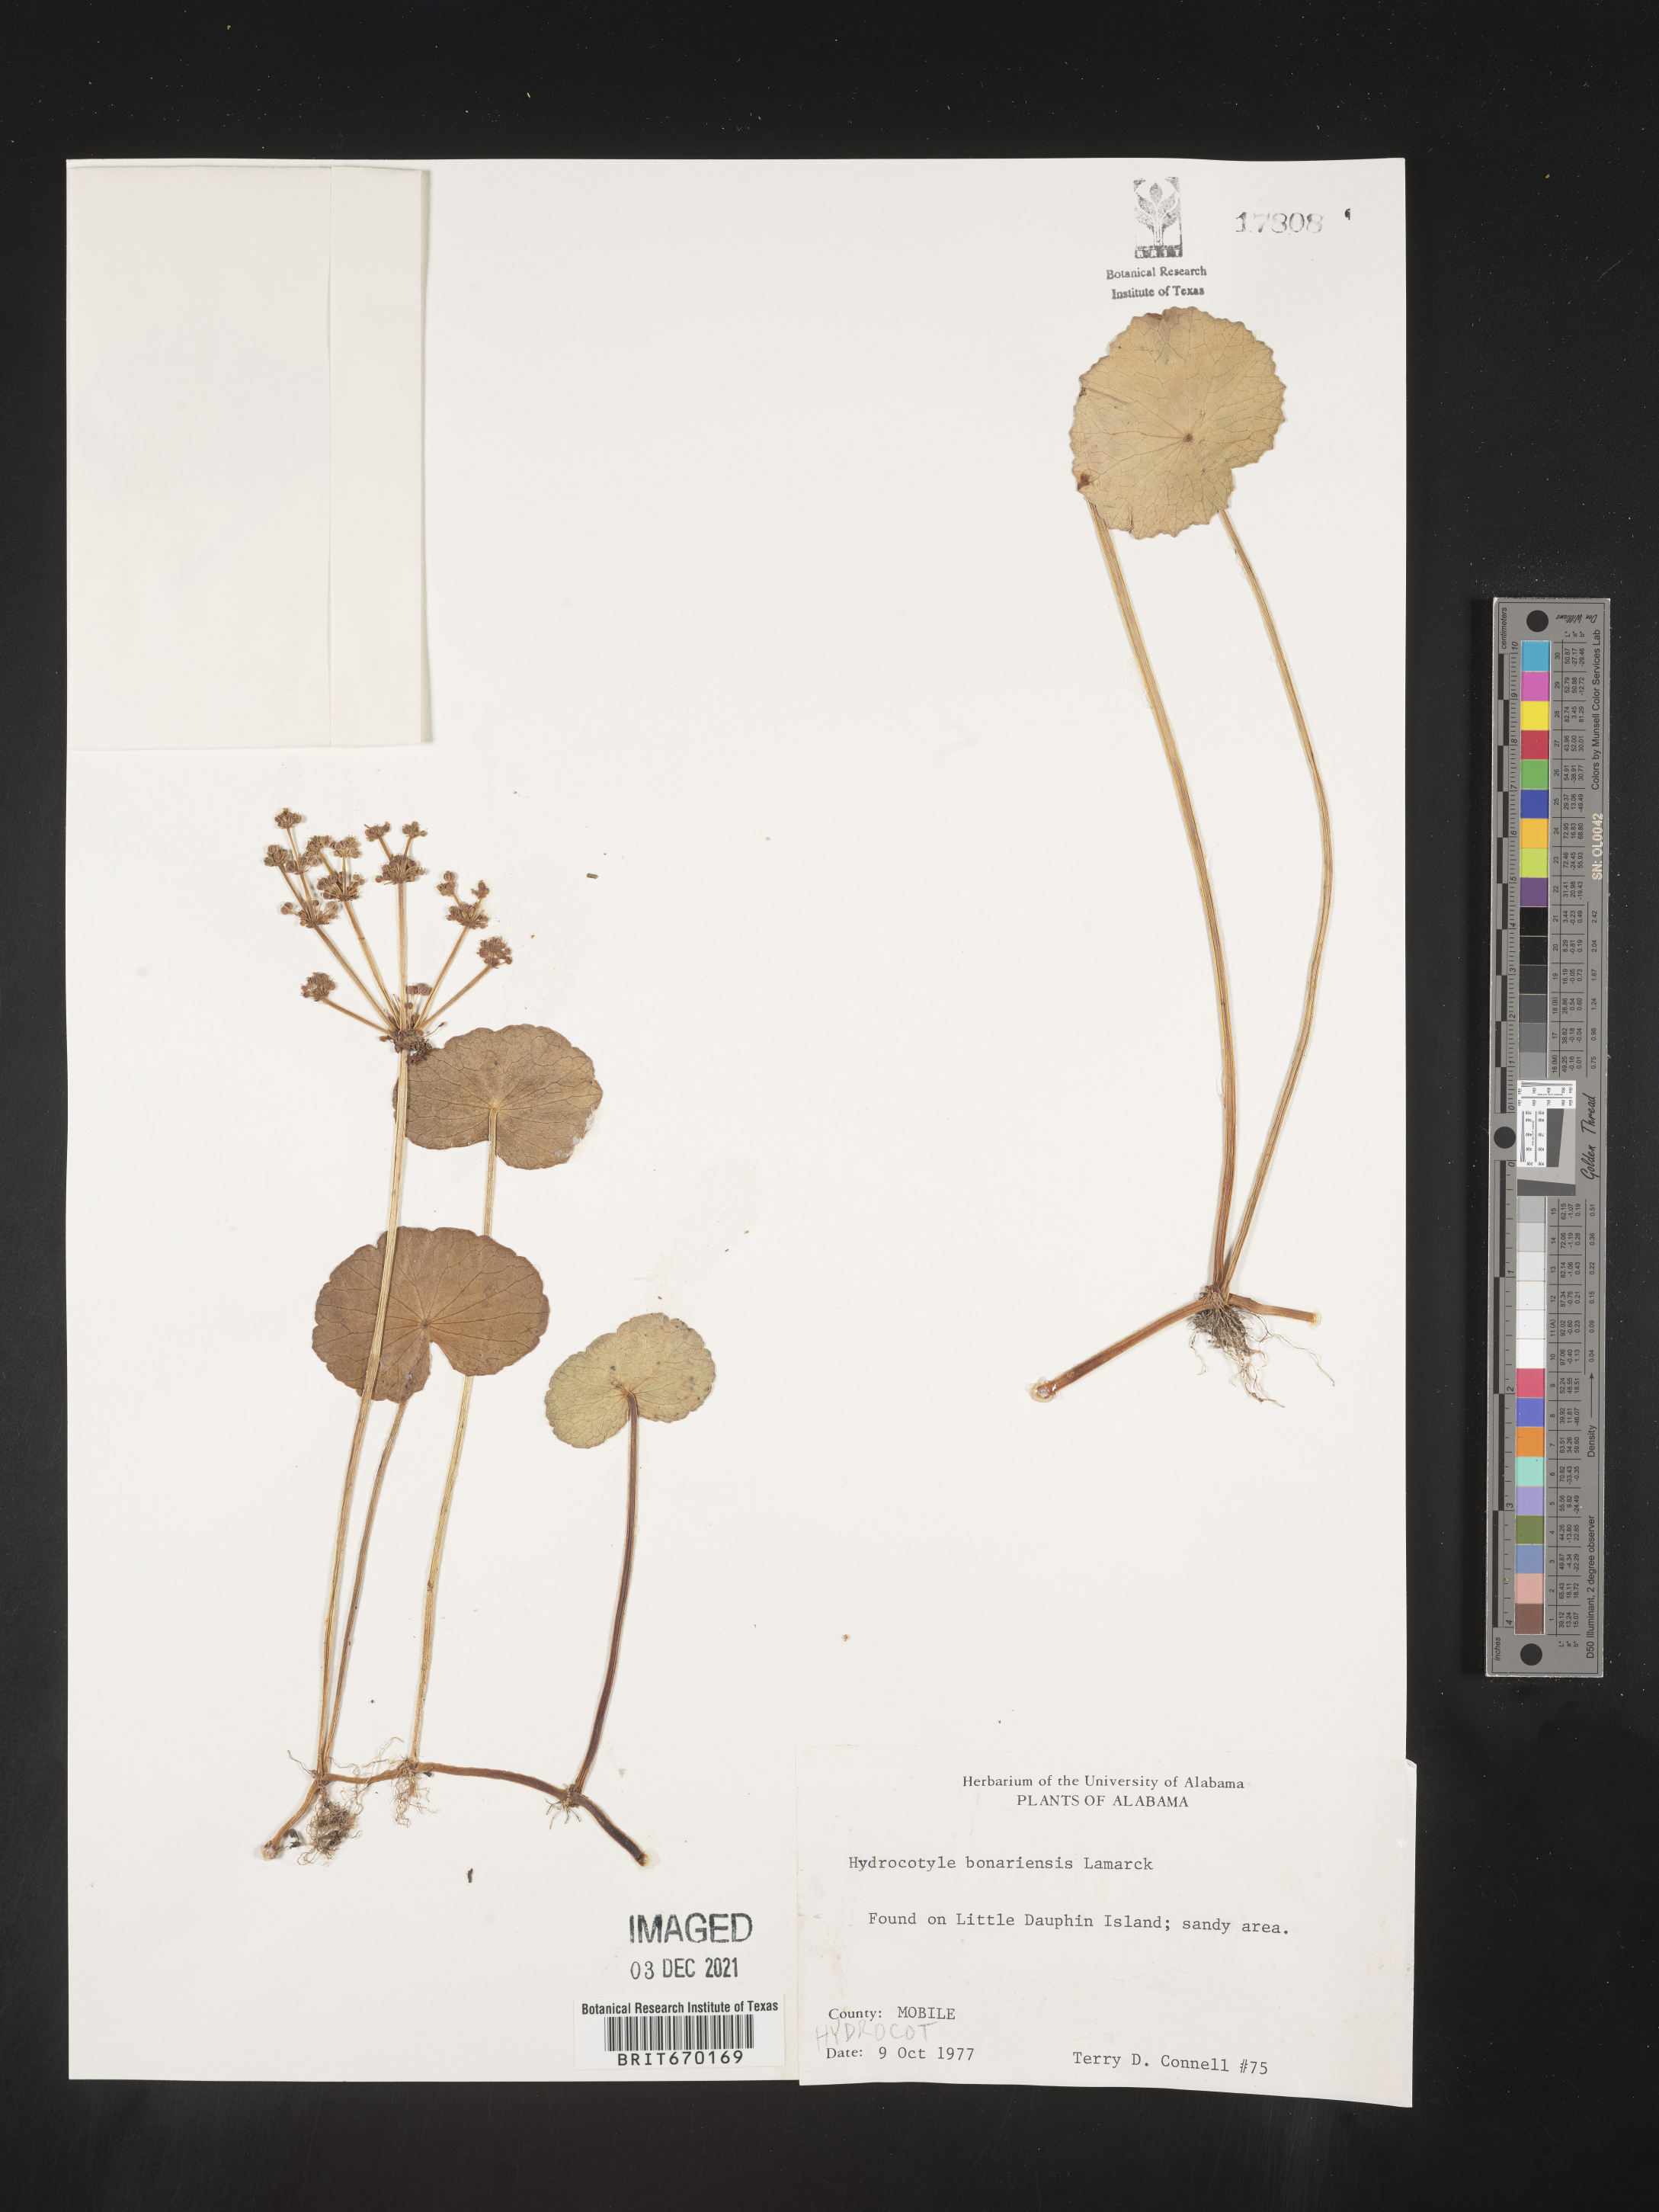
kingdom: Plantae
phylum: Tracheophyta
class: Magnoliopsida
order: Apiales
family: Araliaceae
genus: Hydrocotyle
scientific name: Hydrocotyle bonariensis
